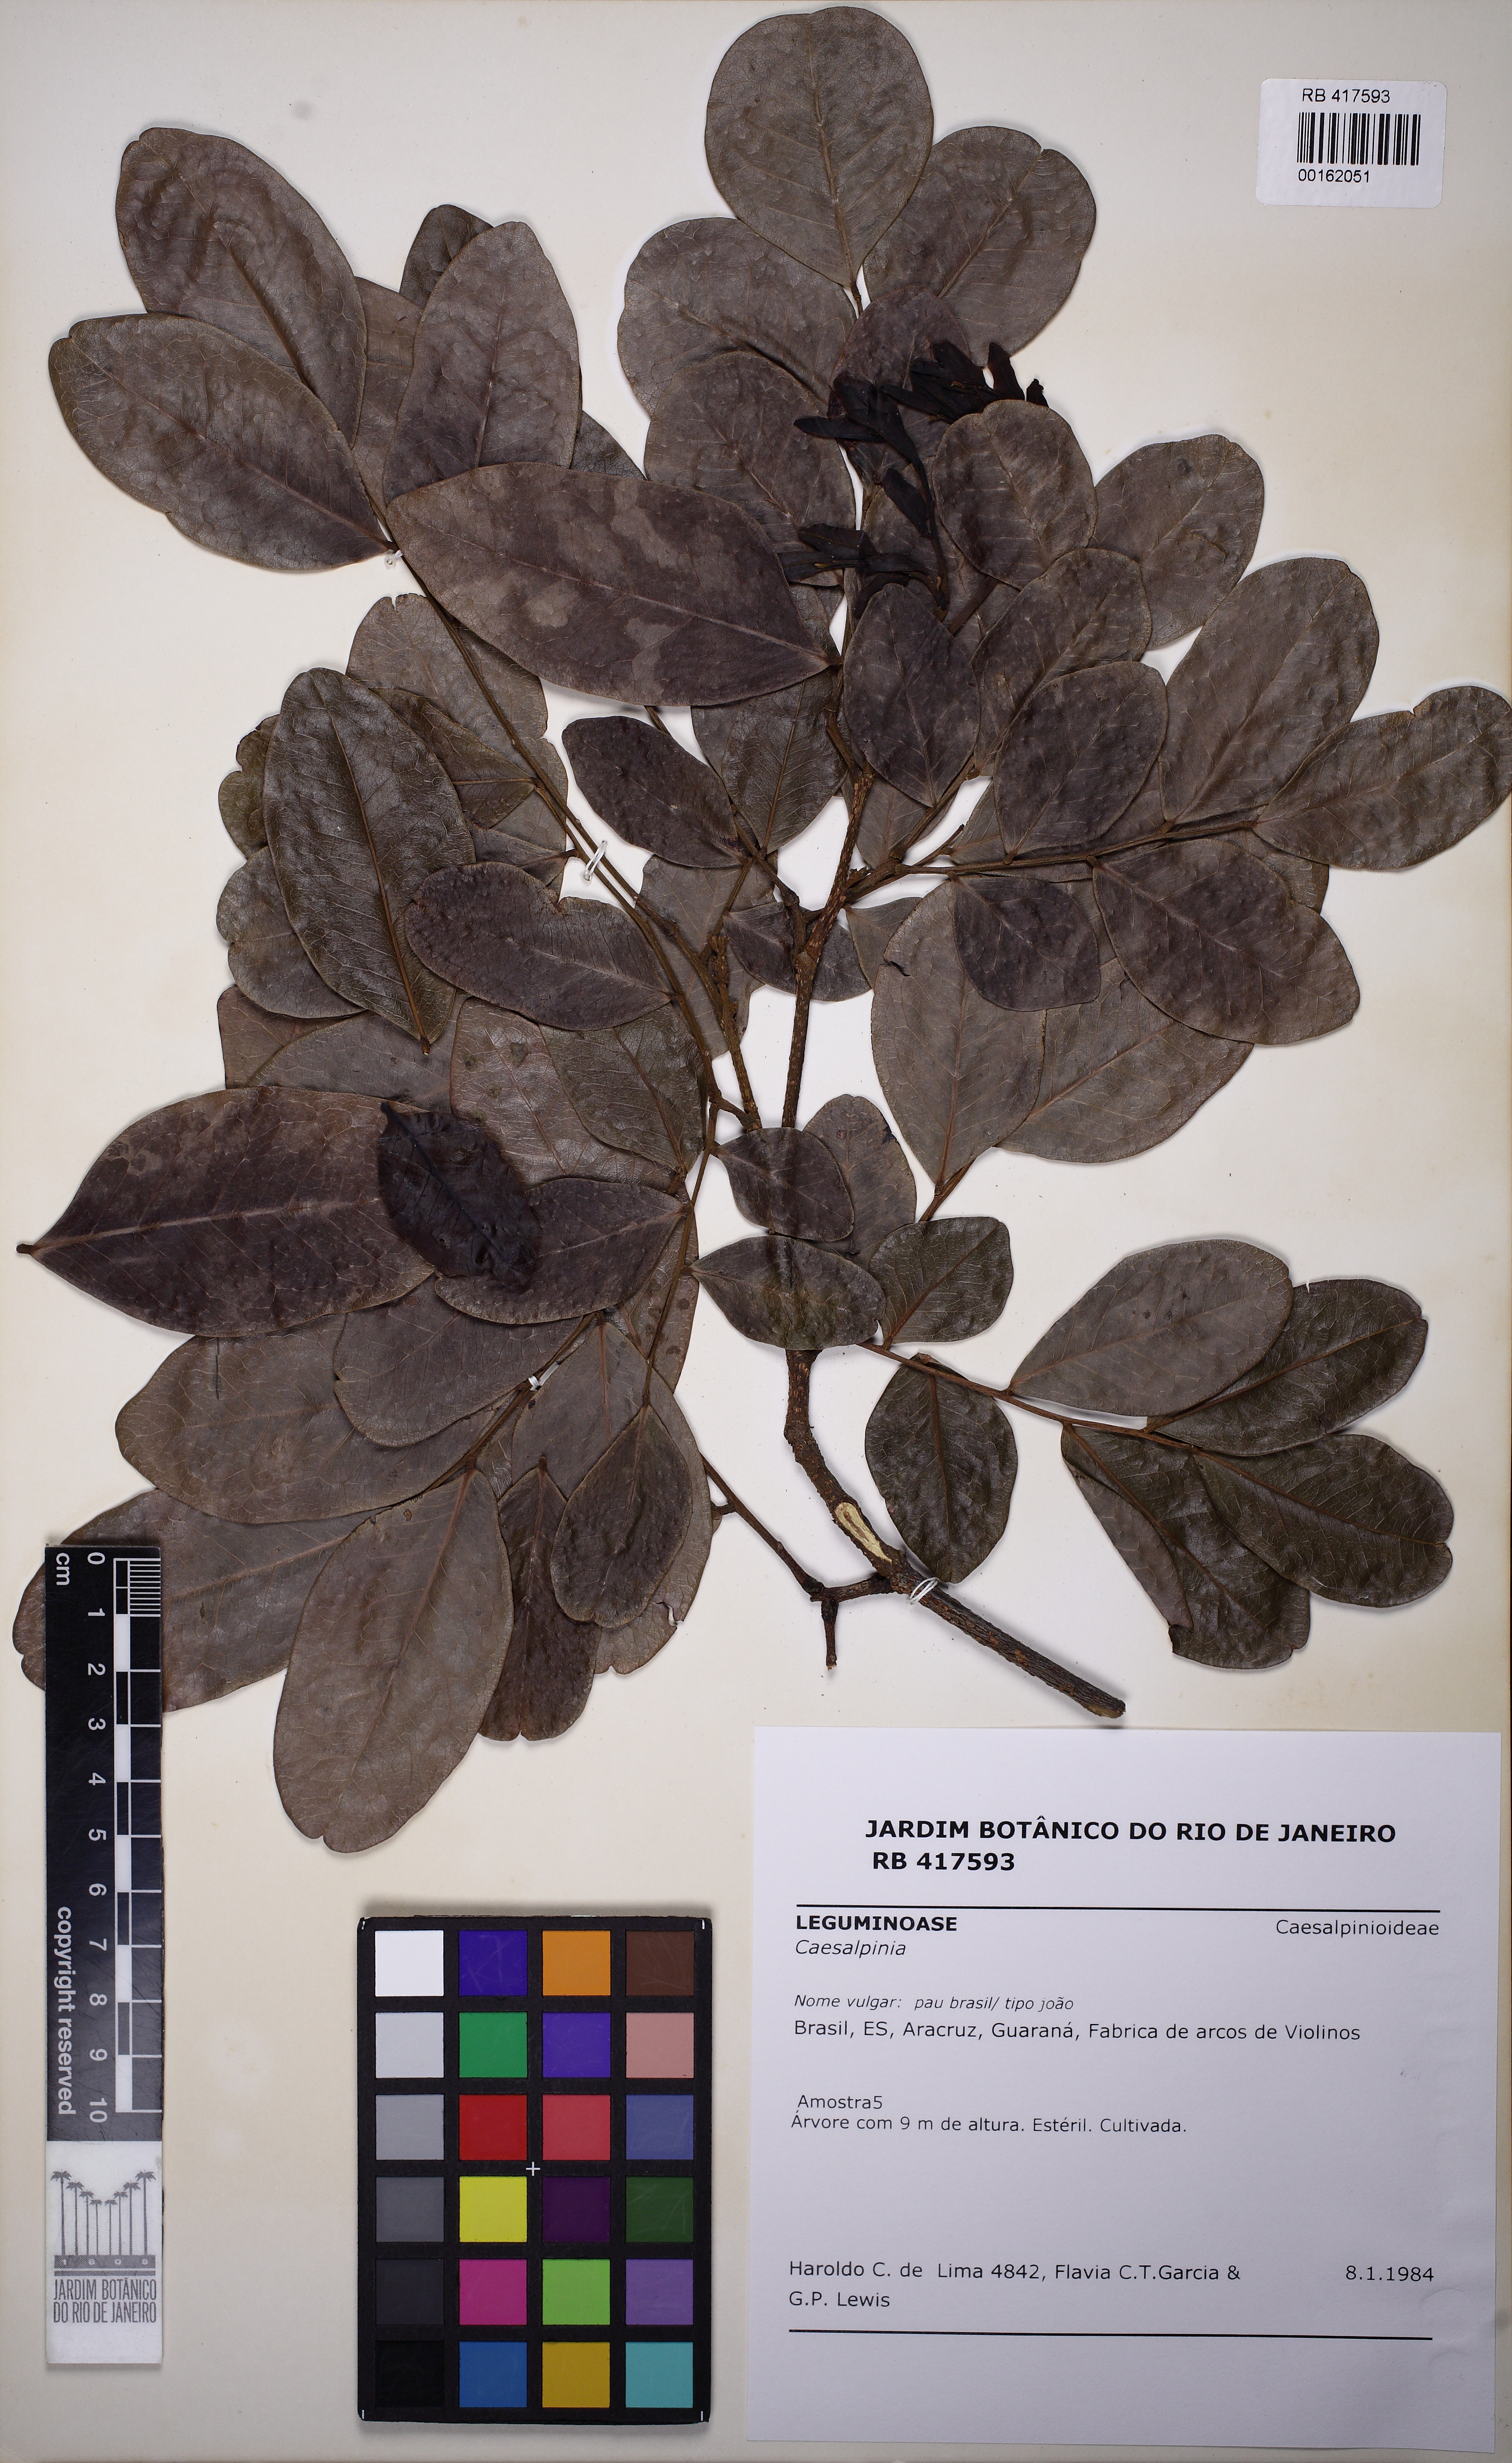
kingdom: Plantae
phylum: Tracheophyta
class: Magnoliopsida
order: Fabales
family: Fabaceae
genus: Paubrasilia
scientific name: Paubrasilia echinata
